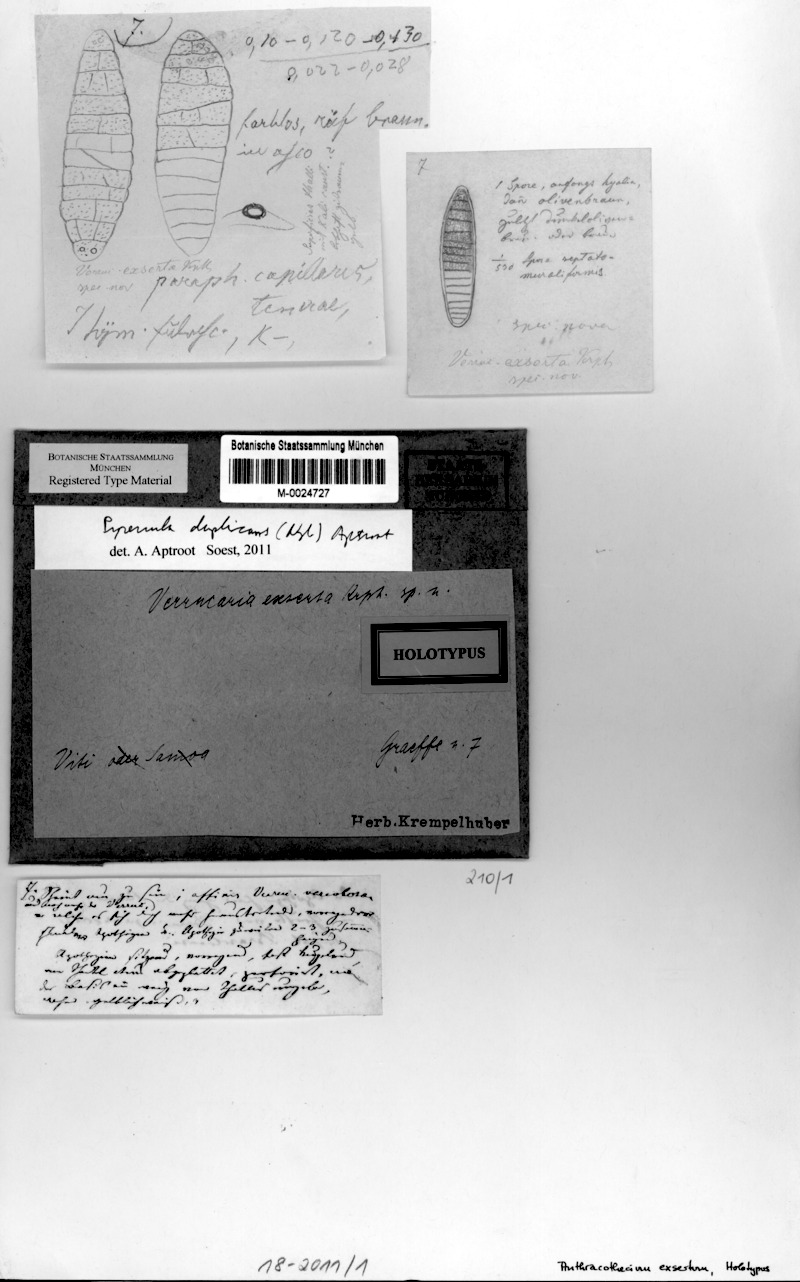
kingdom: Fungi
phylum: Ascomycota
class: Eurotiomycetes
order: Pyrenulales
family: Pyrenulaceae
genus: Pyrenula
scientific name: Pyrenula duplicans
